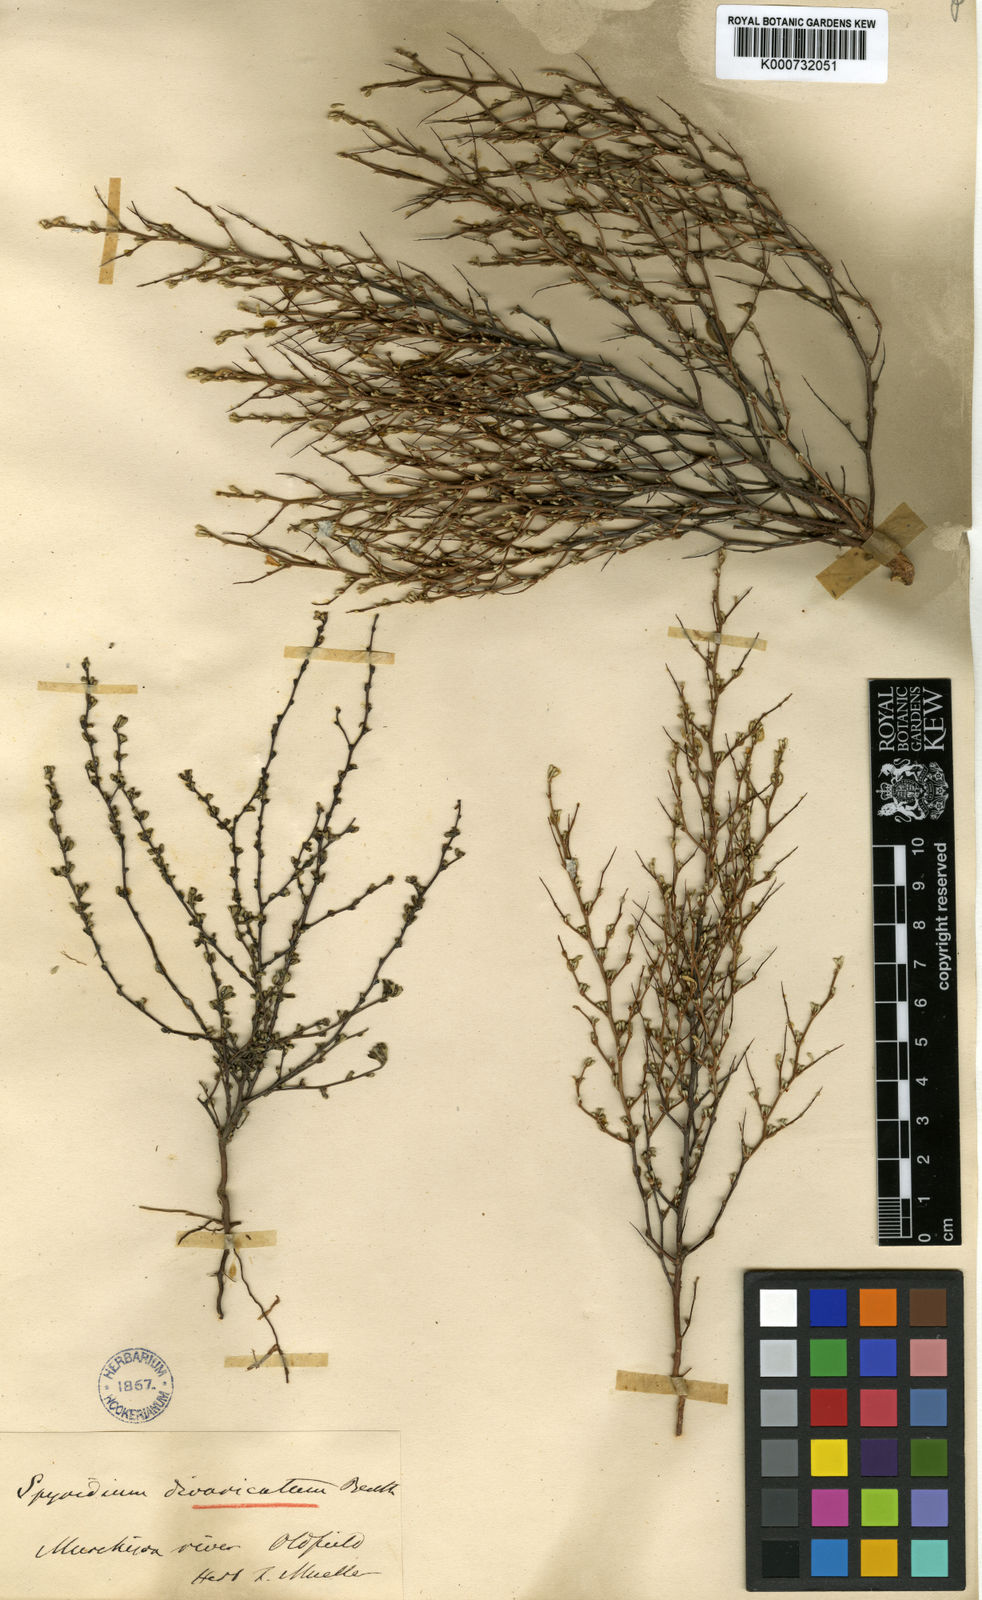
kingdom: Plantae
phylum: Tracheophyta
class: Magnoliopsida
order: Rosales
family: Rhamnaceae
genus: Stenanthemum
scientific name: Stenanthemum divaricatum
